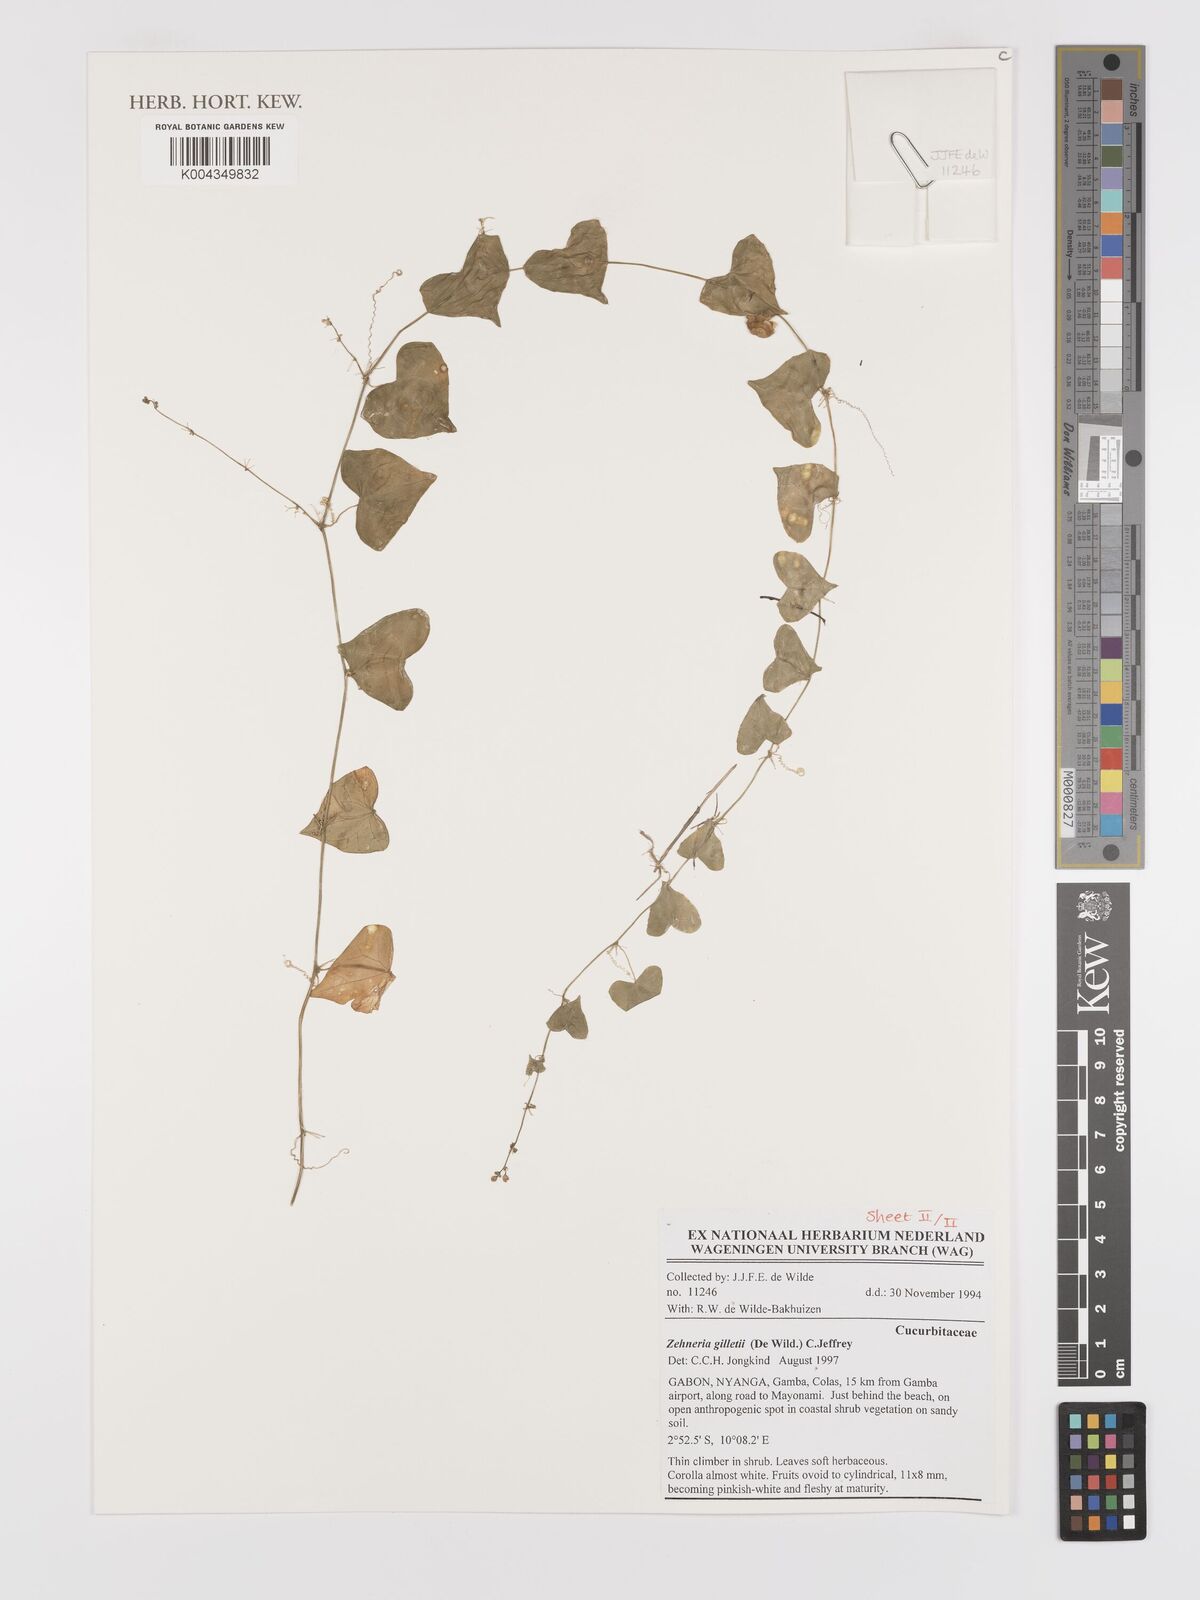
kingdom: Plantae
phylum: Tracheophyta
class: Magnoliopsida
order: Cucurbitales
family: Cucurbitaceae
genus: Zehneria
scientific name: Zehneria gilletii
